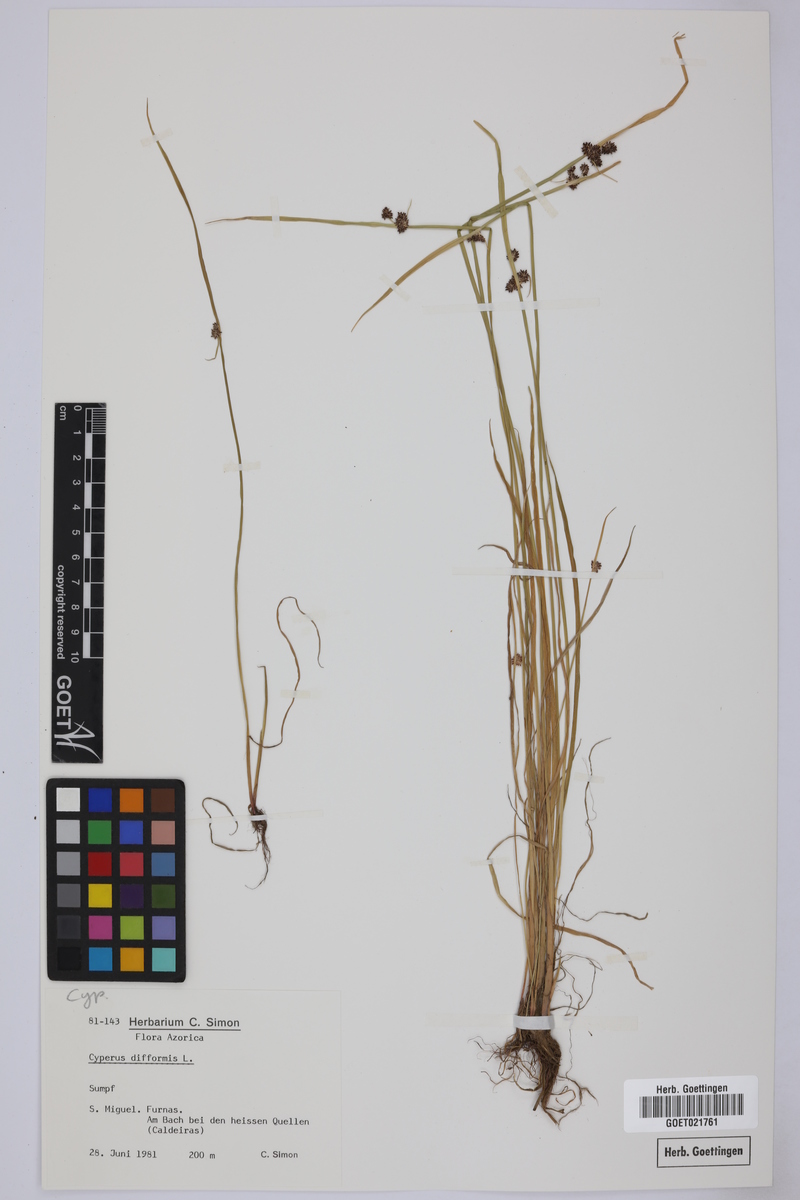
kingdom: Plantae
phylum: Tracheophyta
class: Liliopsida
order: Poales
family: Cyperaceae
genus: Cyperus
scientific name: Cyperus difformis
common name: Variable flatsedge
